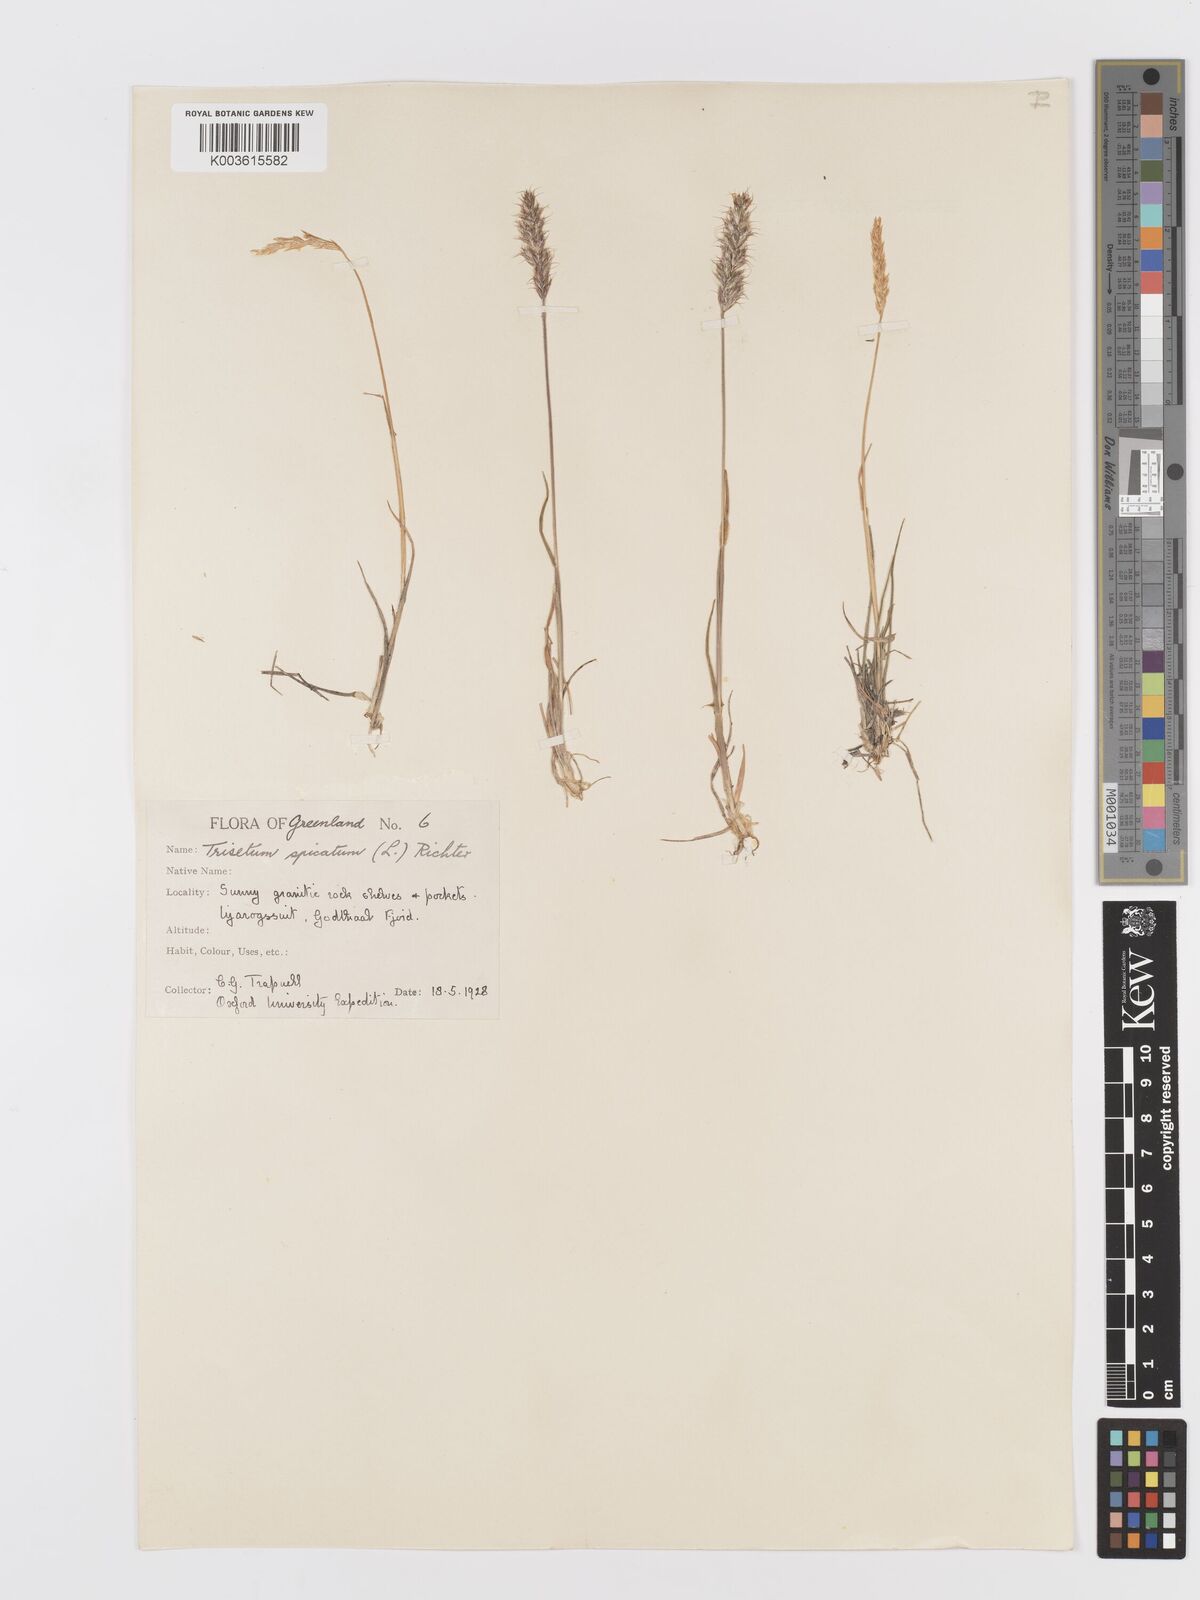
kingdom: Plantae
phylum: Tracheophyta
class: Liliopsida
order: Poales
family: Poaceae
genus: Koeleria
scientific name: Koeleria spicata
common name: Mountain trisetum
